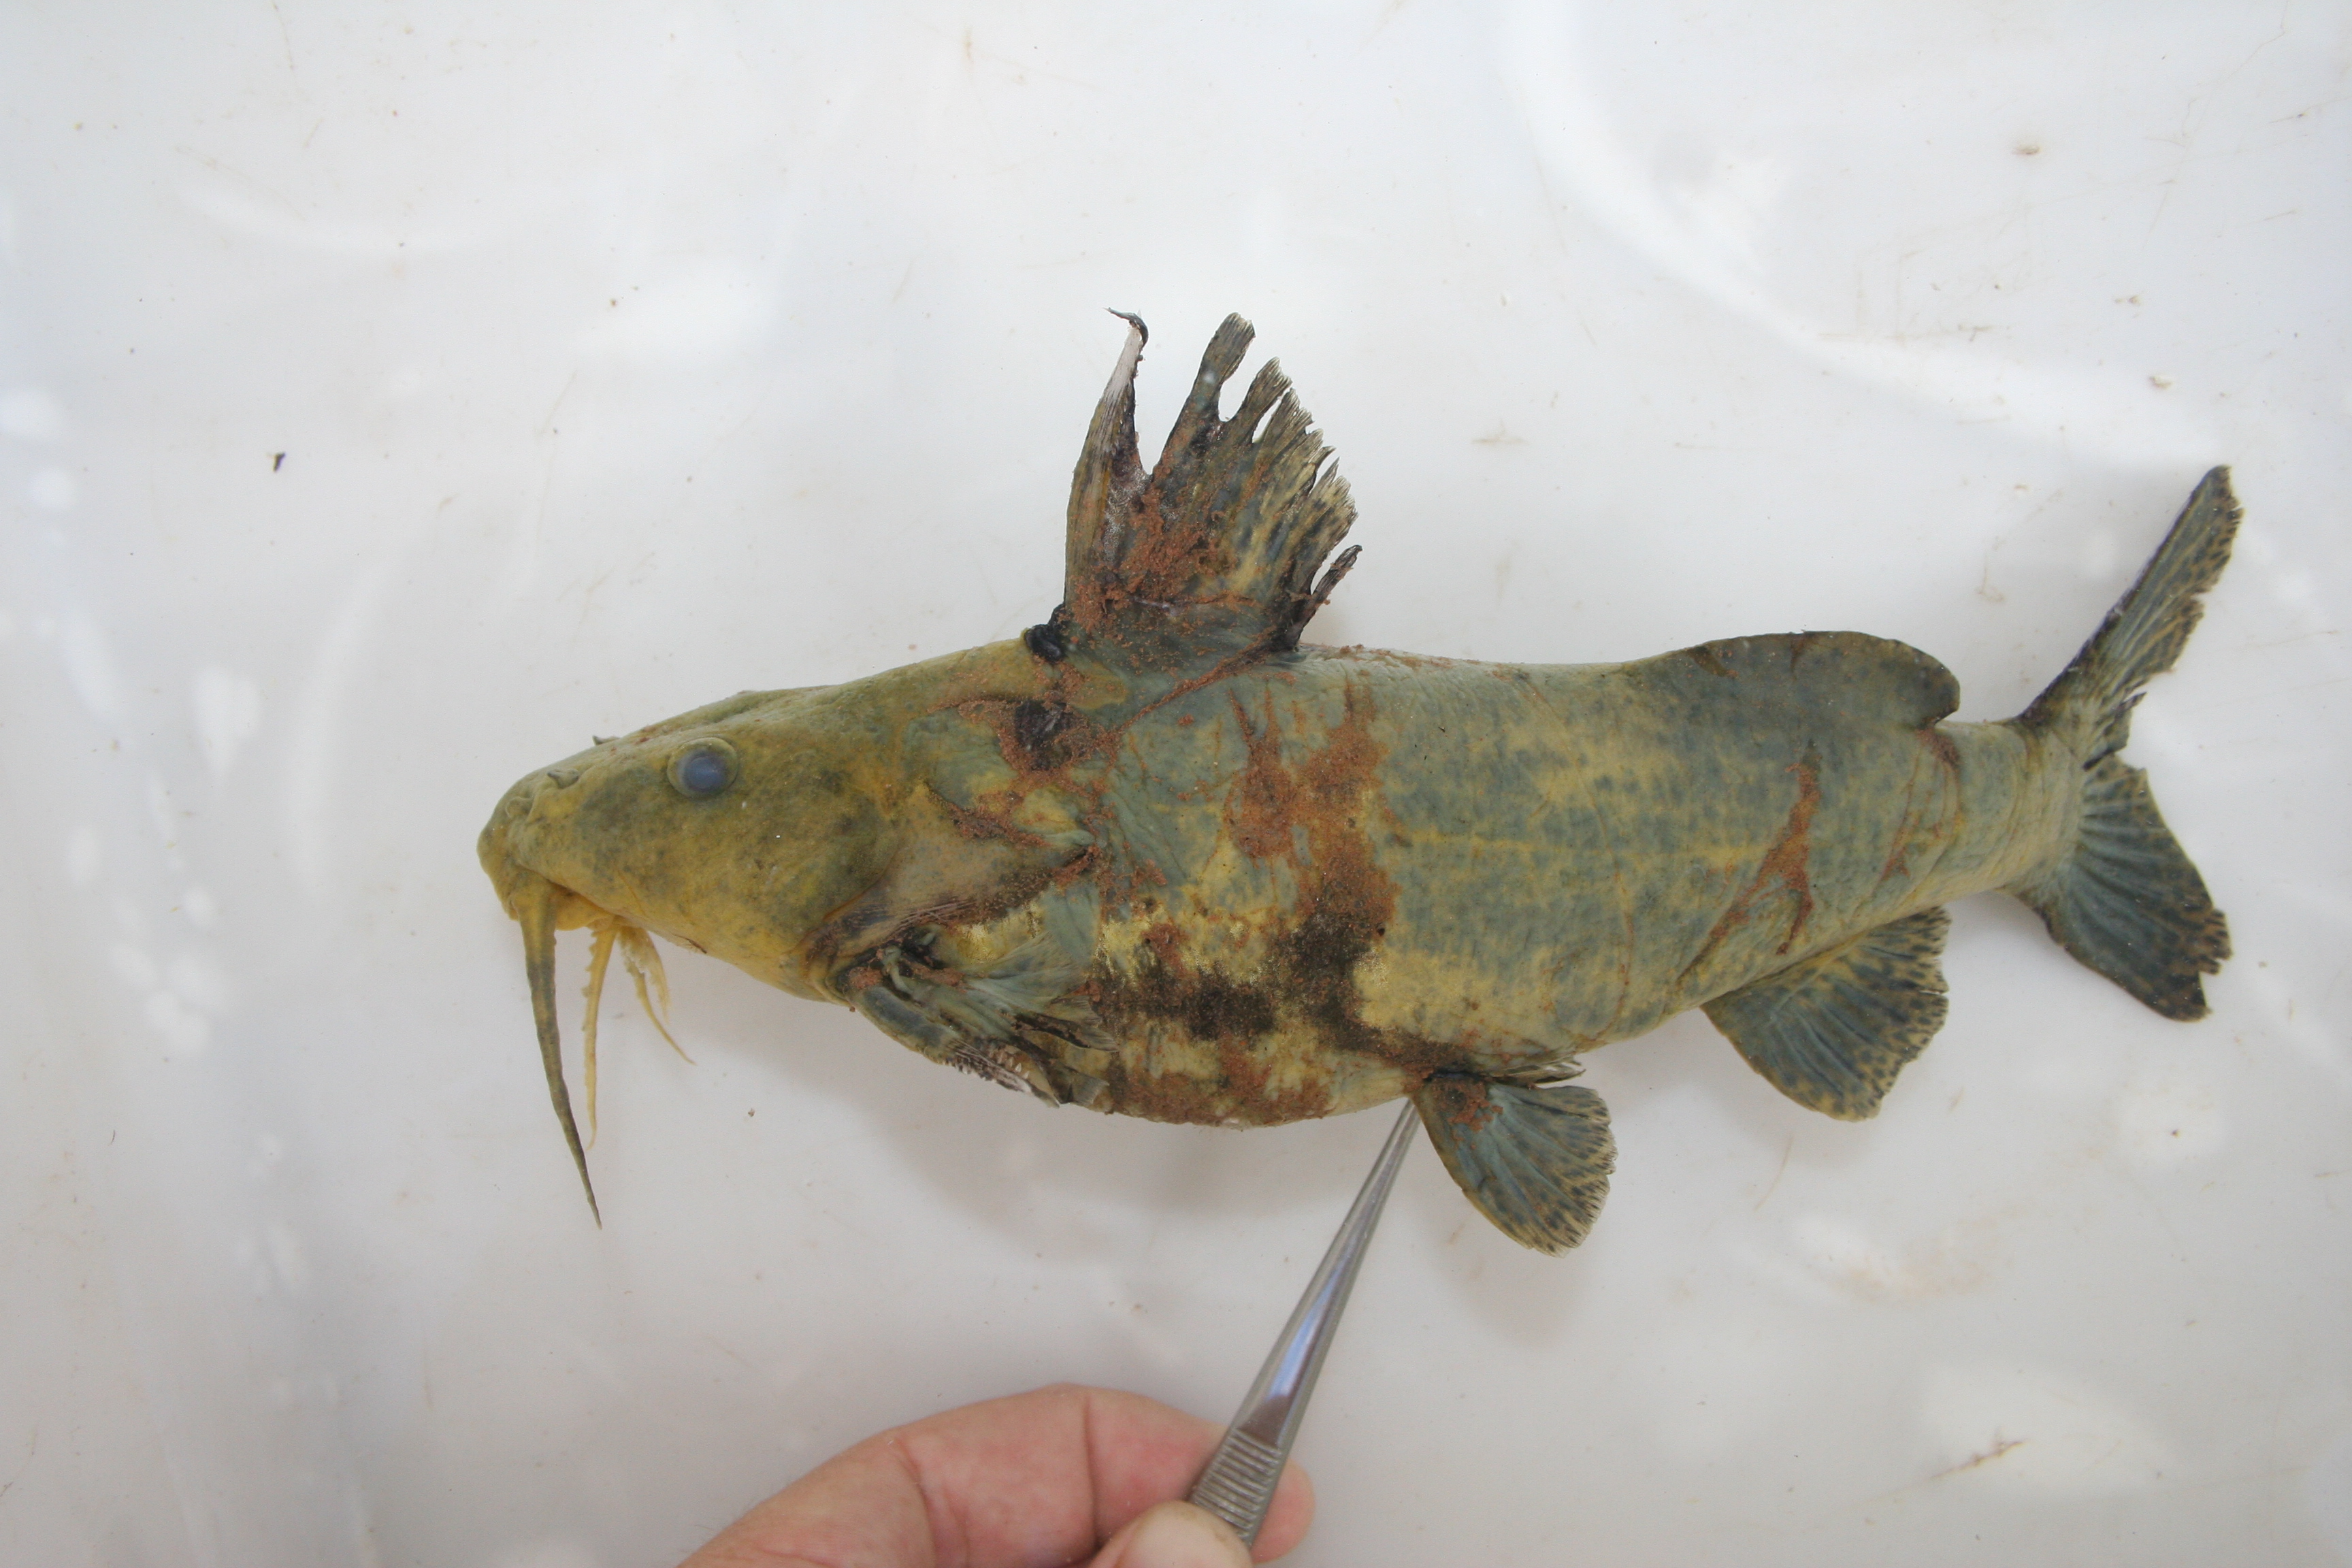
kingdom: Animalia
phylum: Chordata
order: Siluriformes
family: Mochokidae
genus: Synodontis
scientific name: Synodontis
